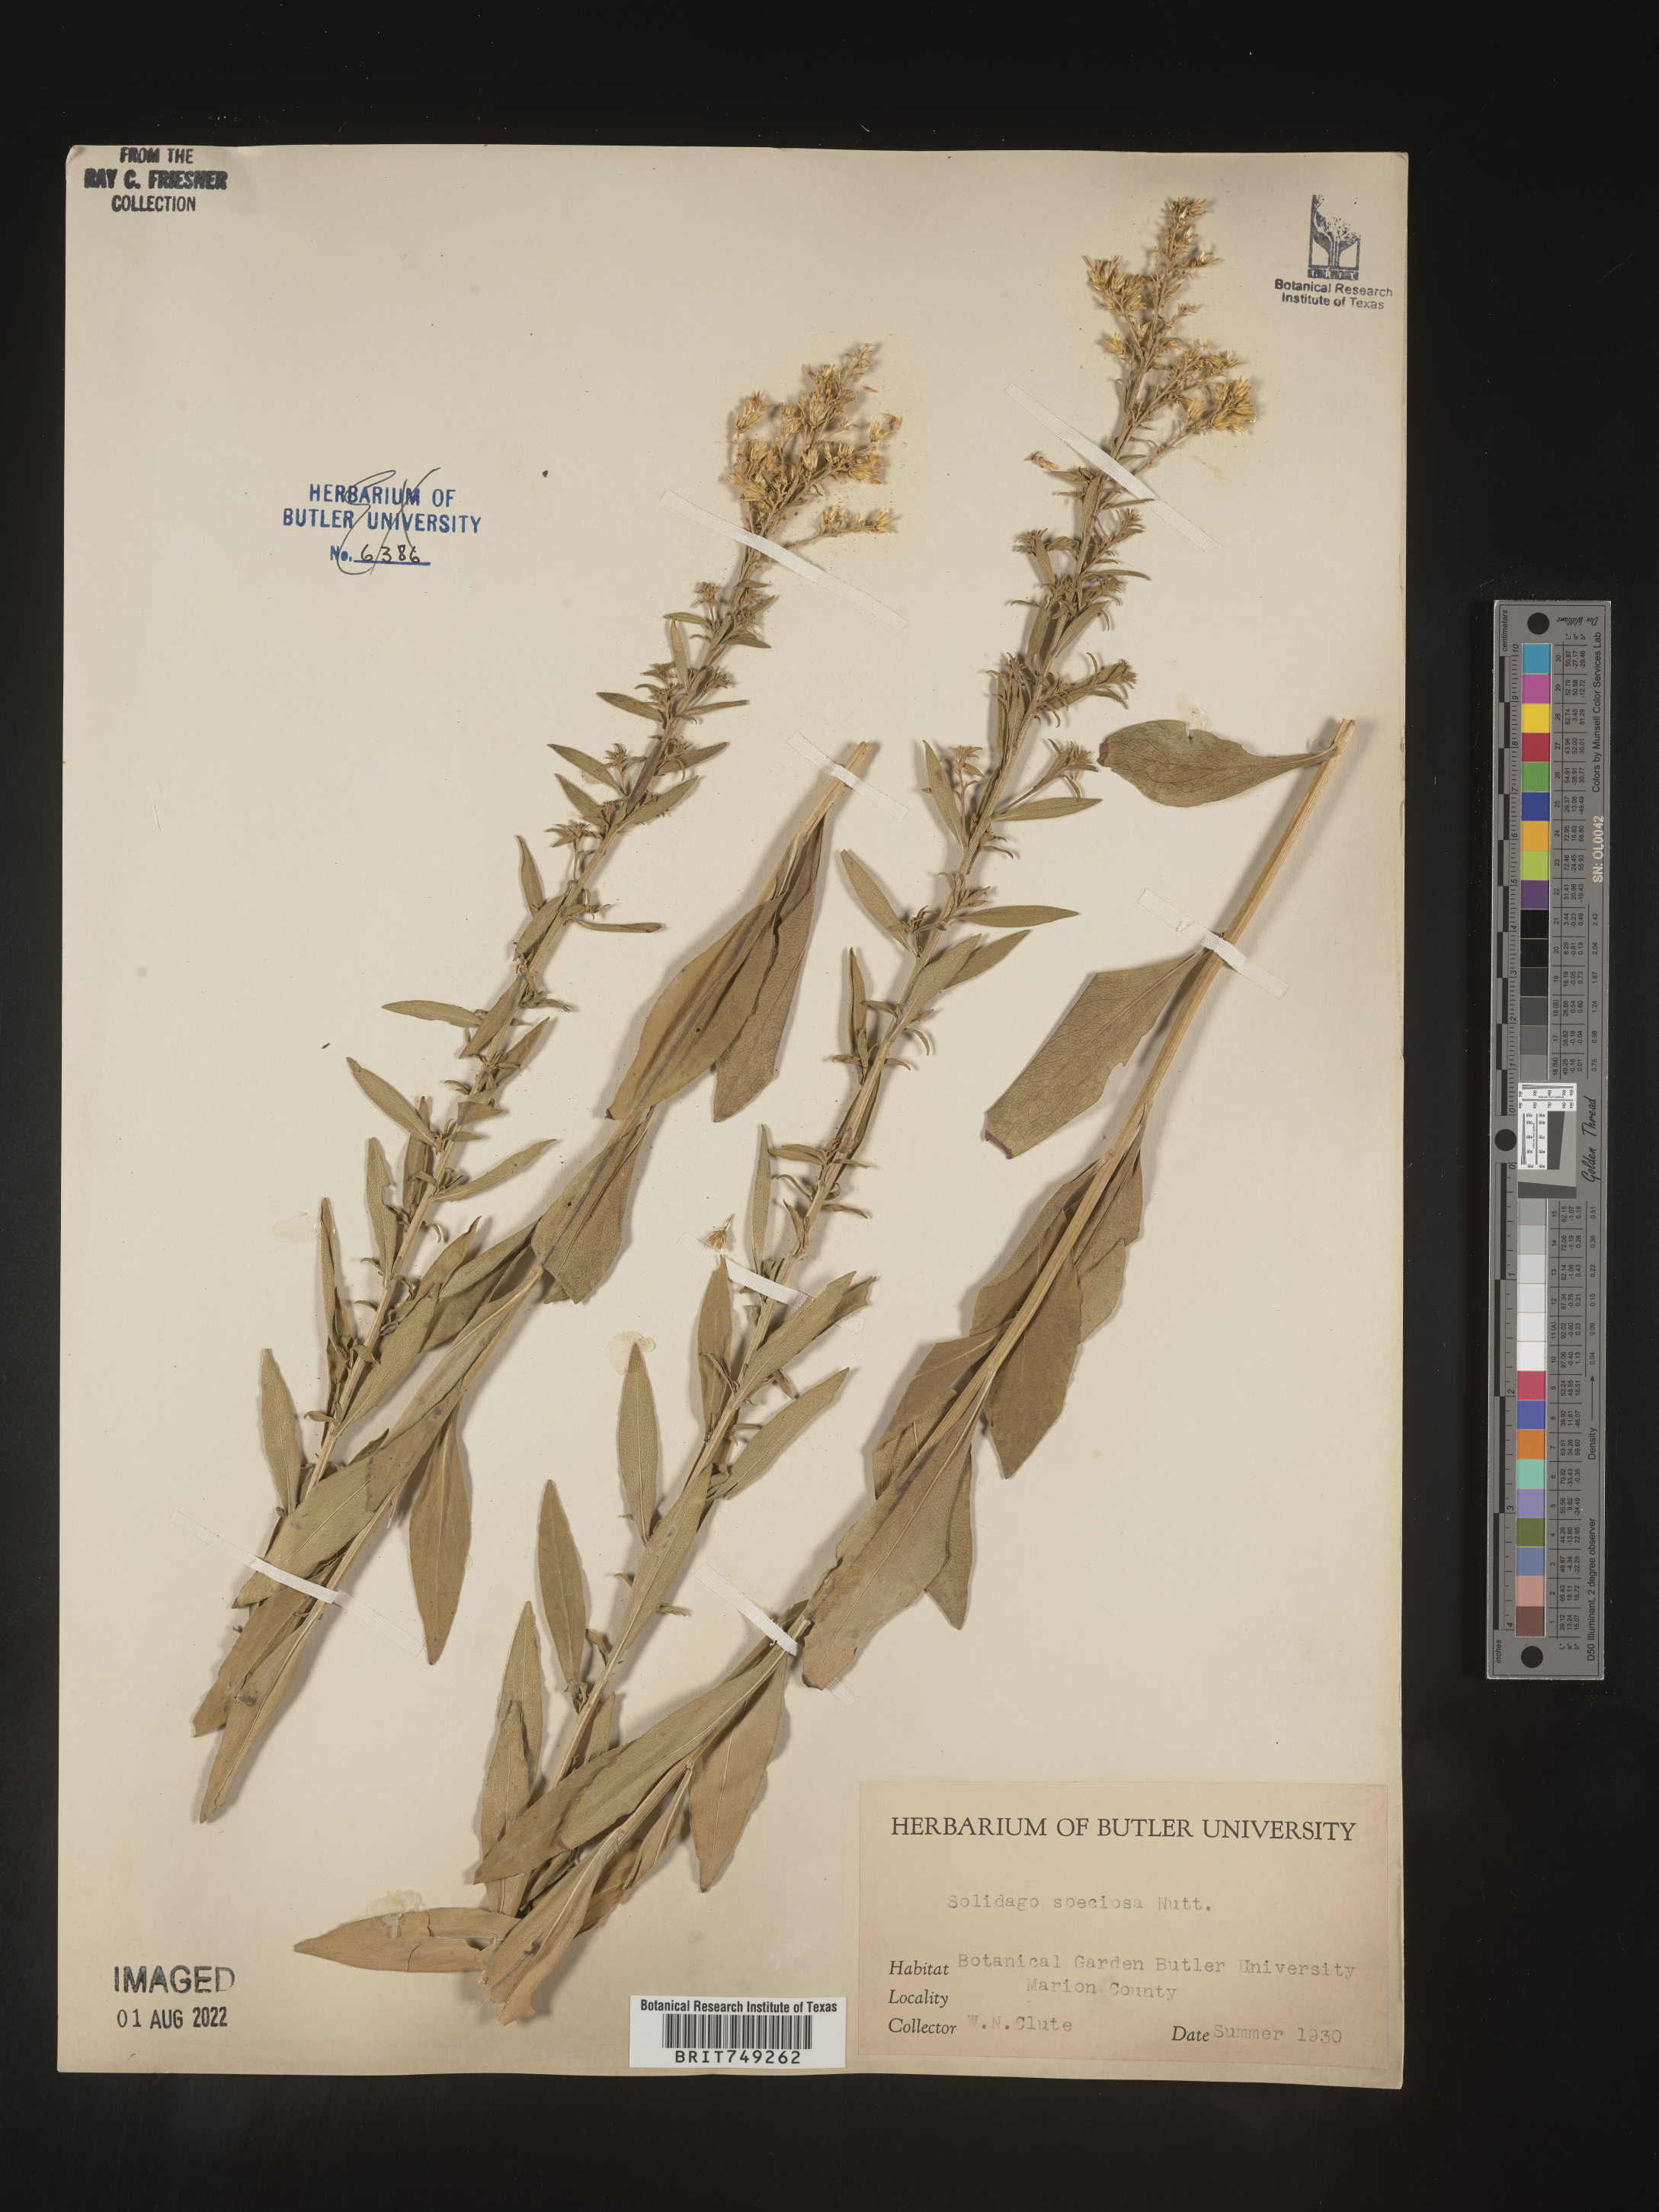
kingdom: Plantae
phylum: Tracheophyta
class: Magnoliopsida
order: Asterales
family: Asteraceae
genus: Solidago
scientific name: Solidago speciosa
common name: Showy goldenrod
